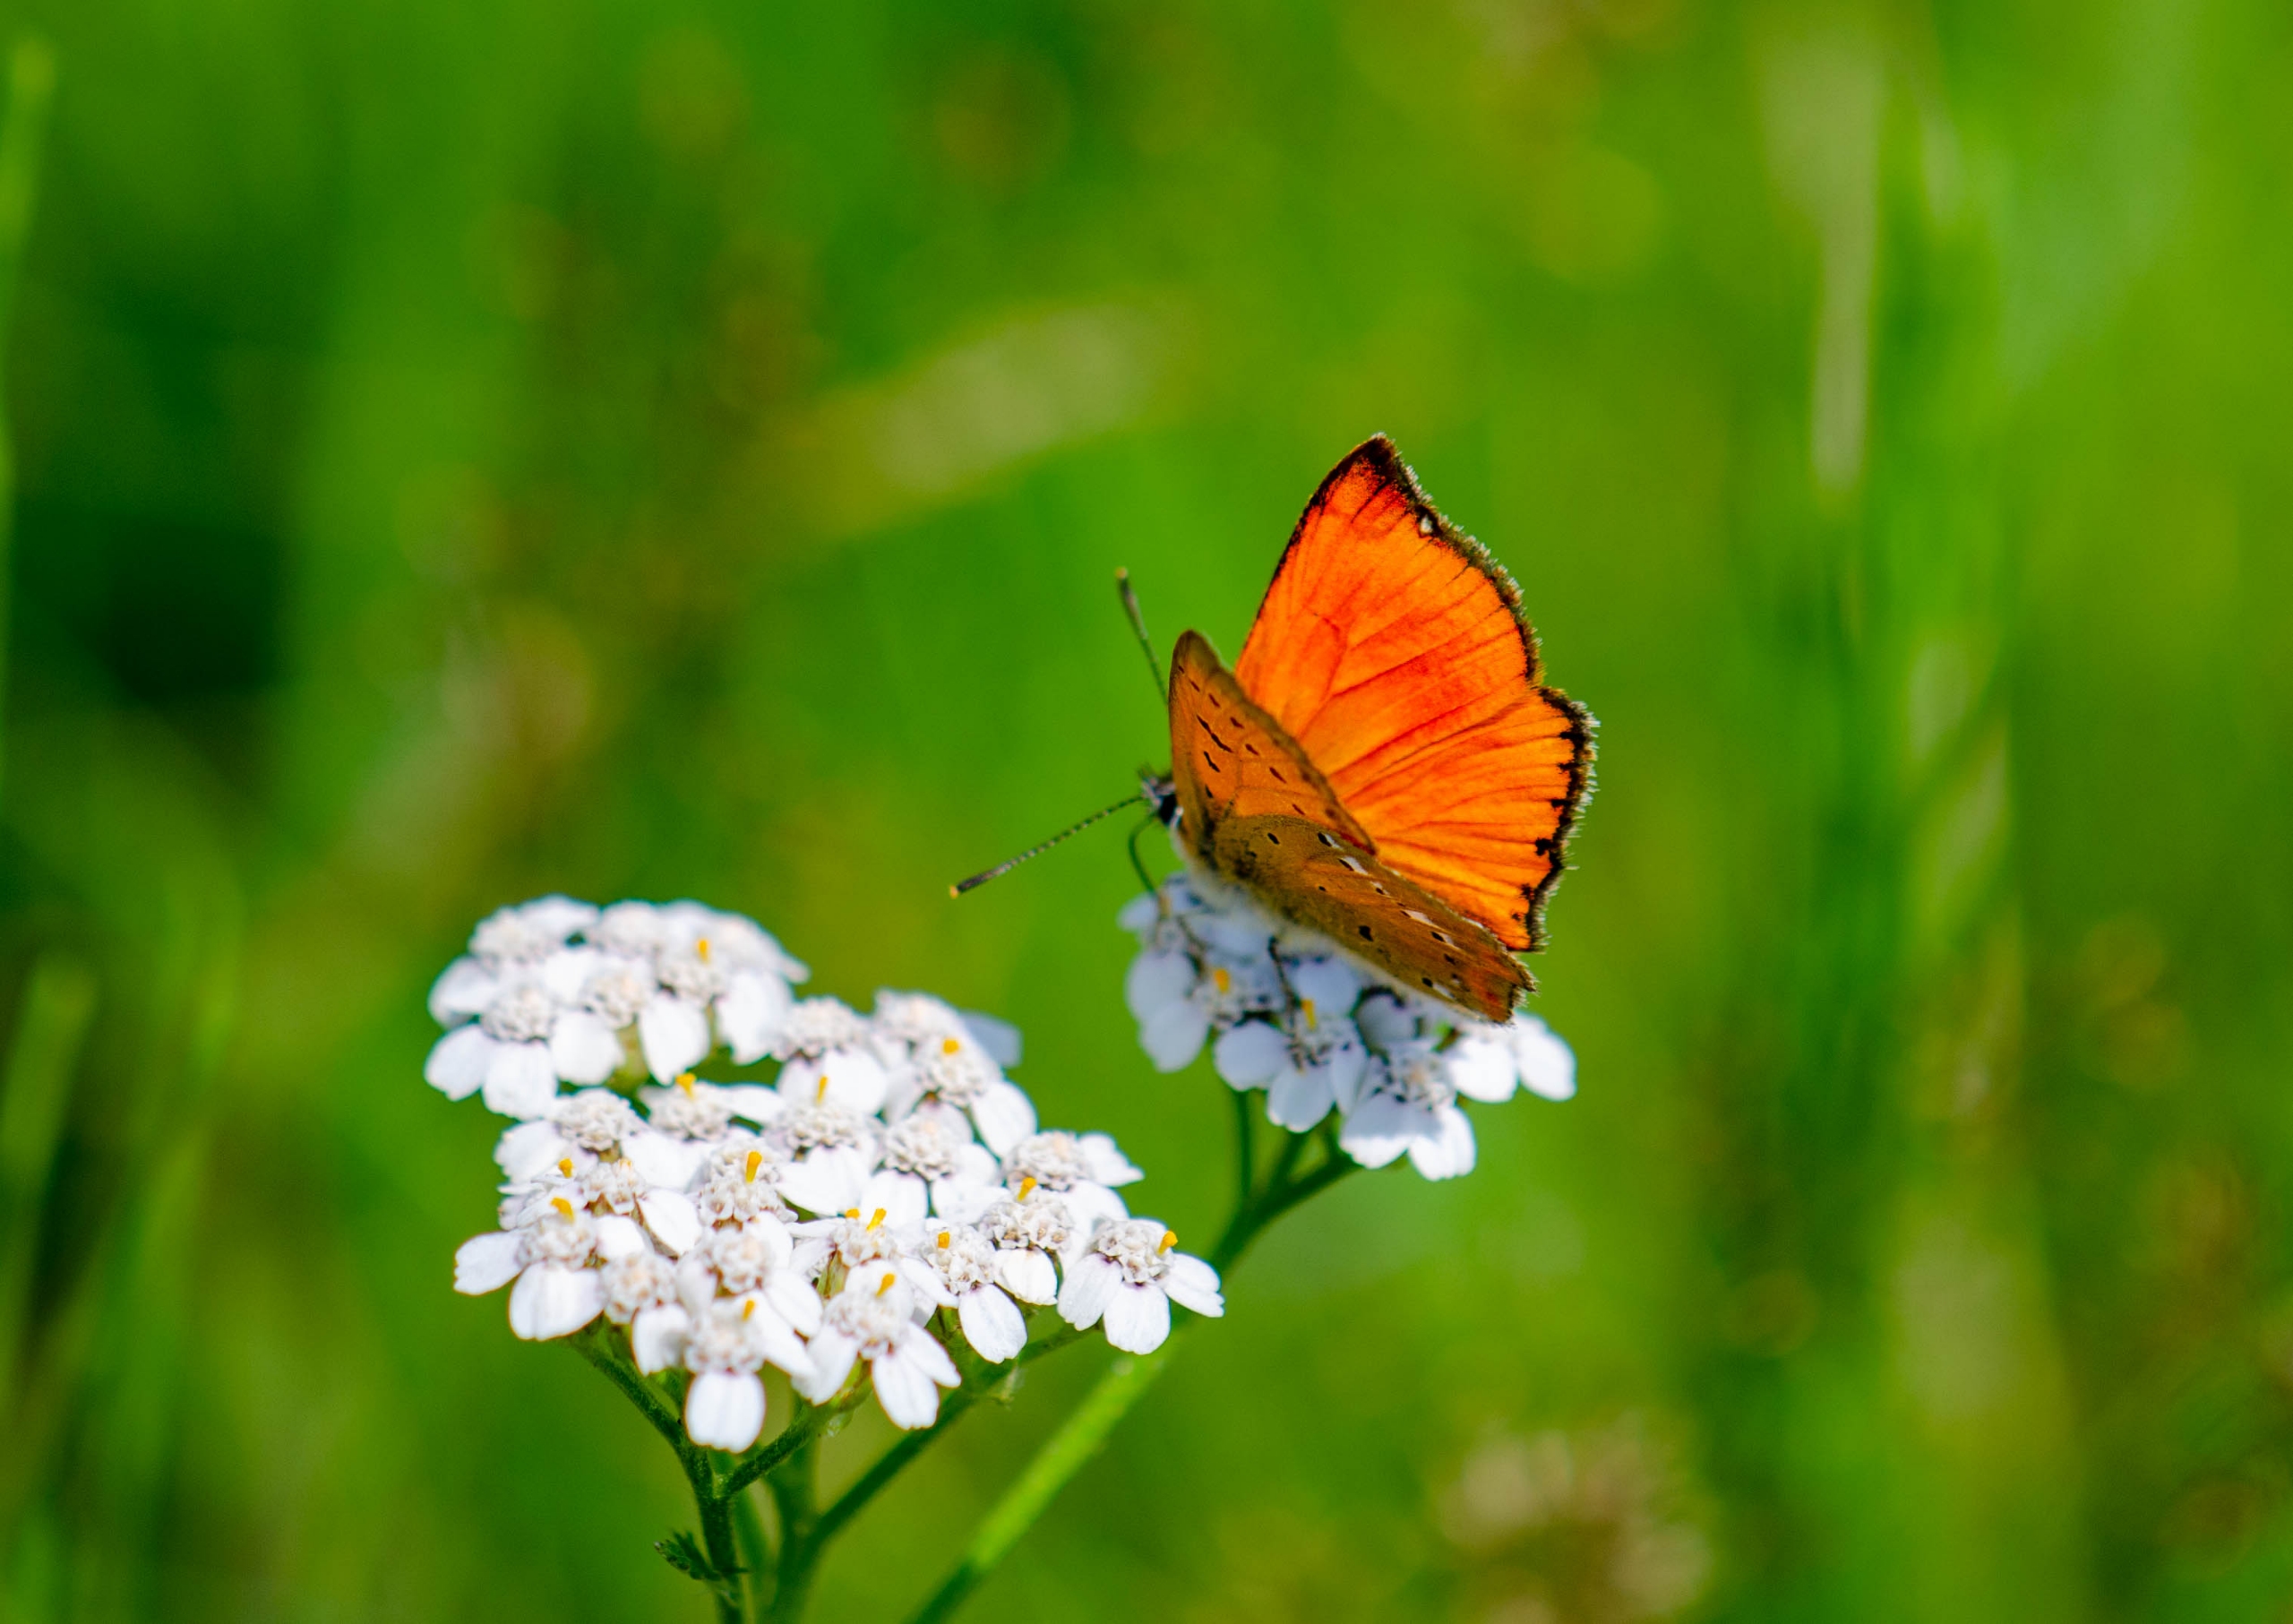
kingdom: Animalia
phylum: Arthropoda
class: Insecta
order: Lepidoptera
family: Lycaenidae
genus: Lycaena
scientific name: Lycaena virgaureae
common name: Dukatsommerfugl
